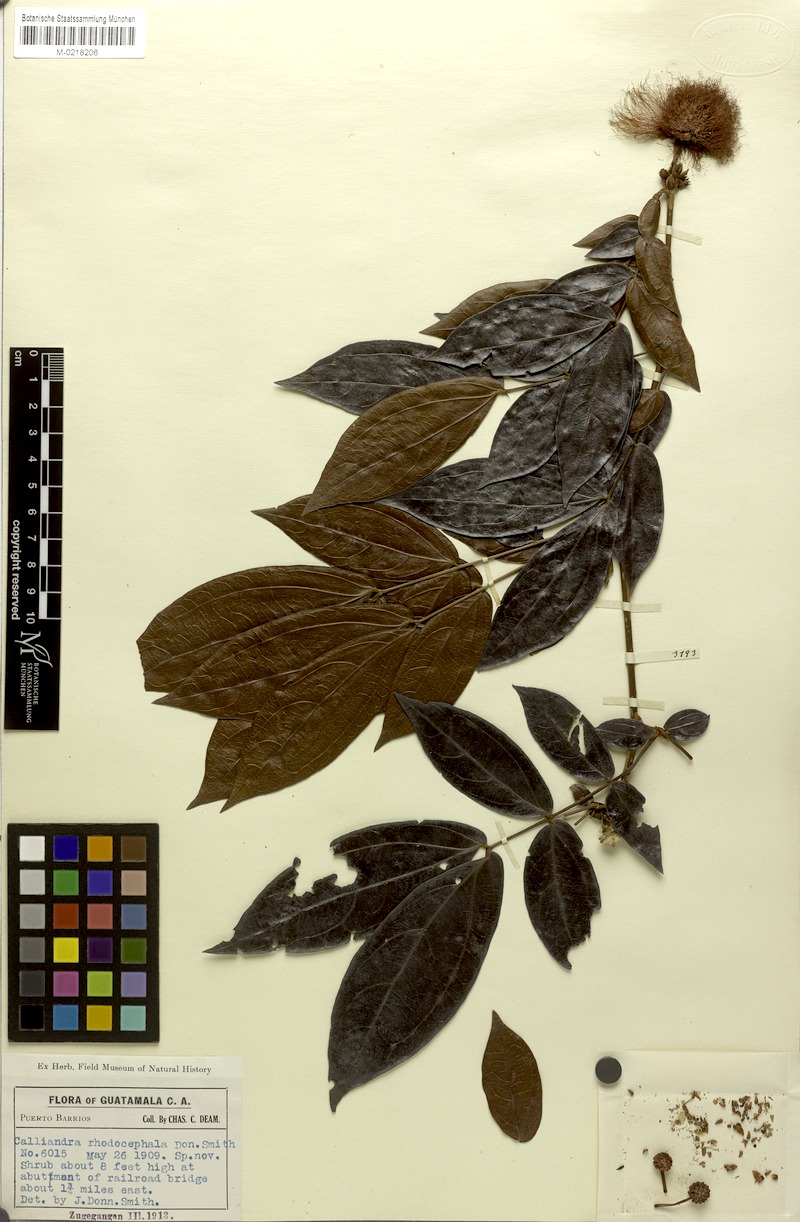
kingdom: Plantae
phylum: Tracheophyta
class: Magnoliopsida
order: Fabales
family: Fabaceae
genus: Calliandra
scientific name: Calliandra rhodocephala
